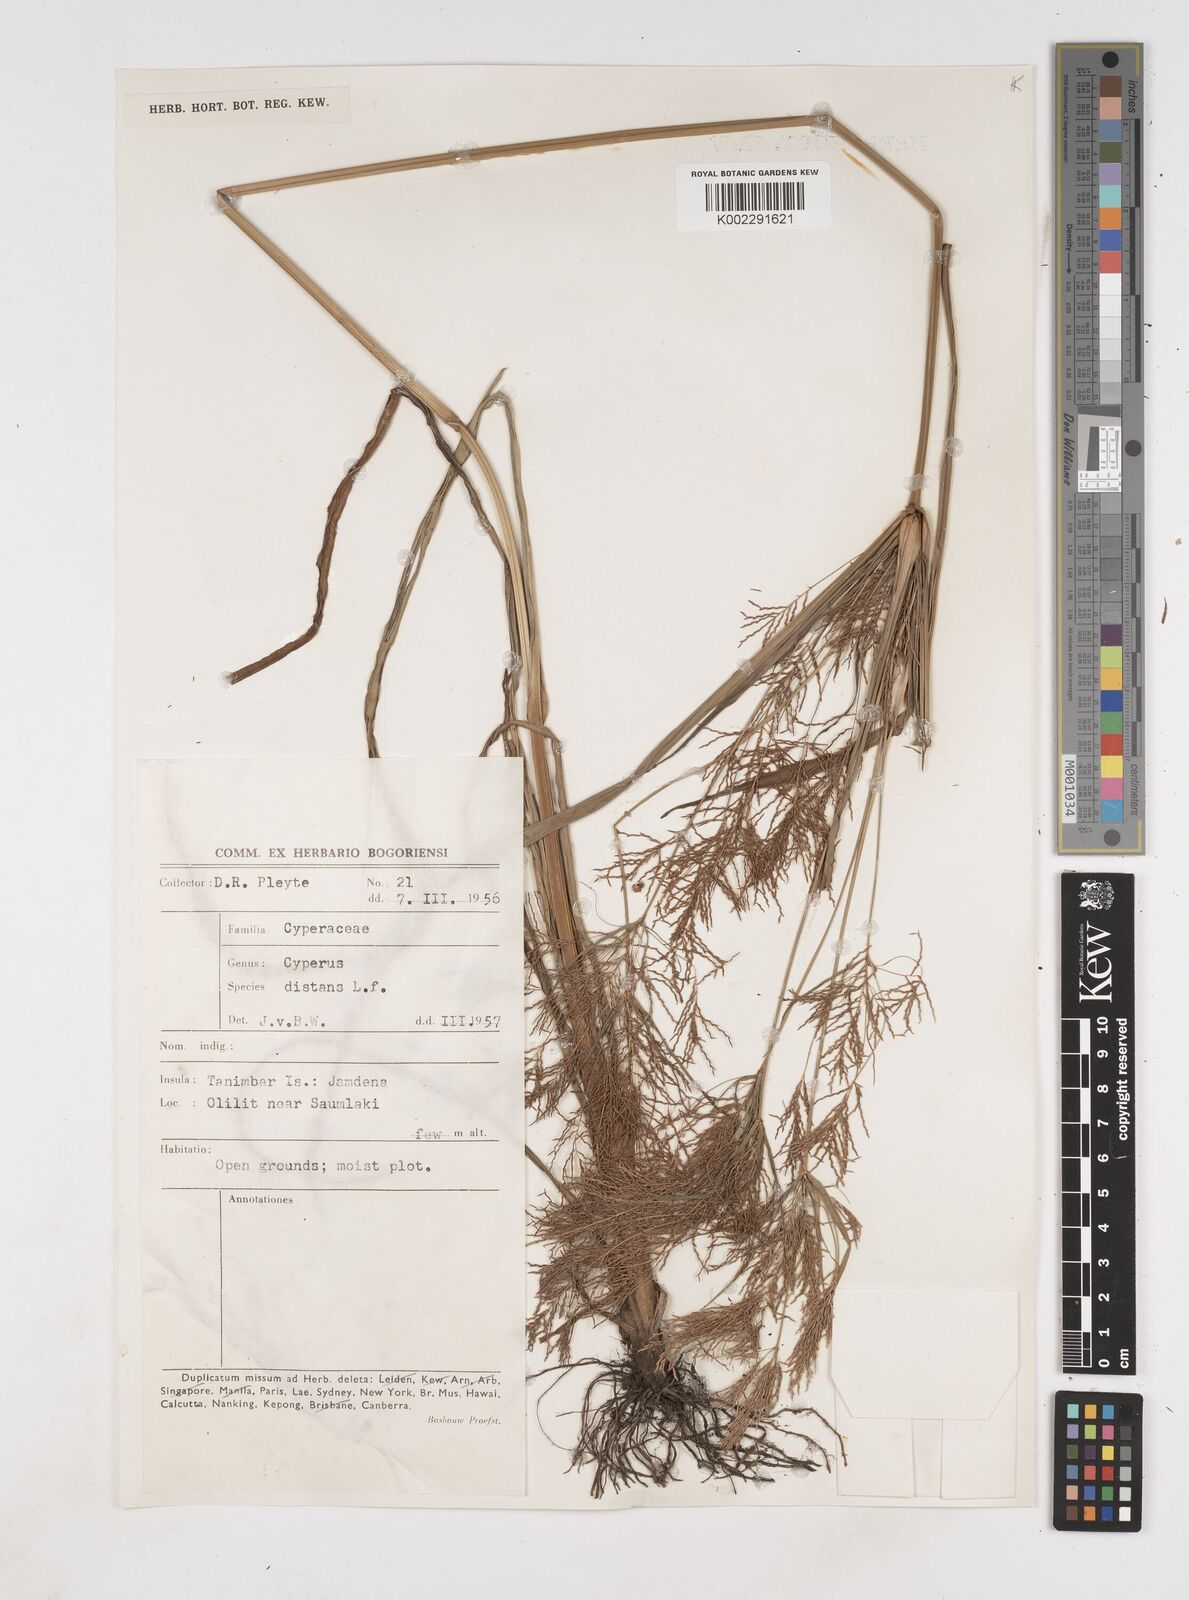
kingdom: Plantae
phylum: Tracheophyta
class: Liliopsida
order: Poales
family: Cyperaceae
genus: Cyperus
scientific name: Cyperus distans
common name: Slender cyperus
